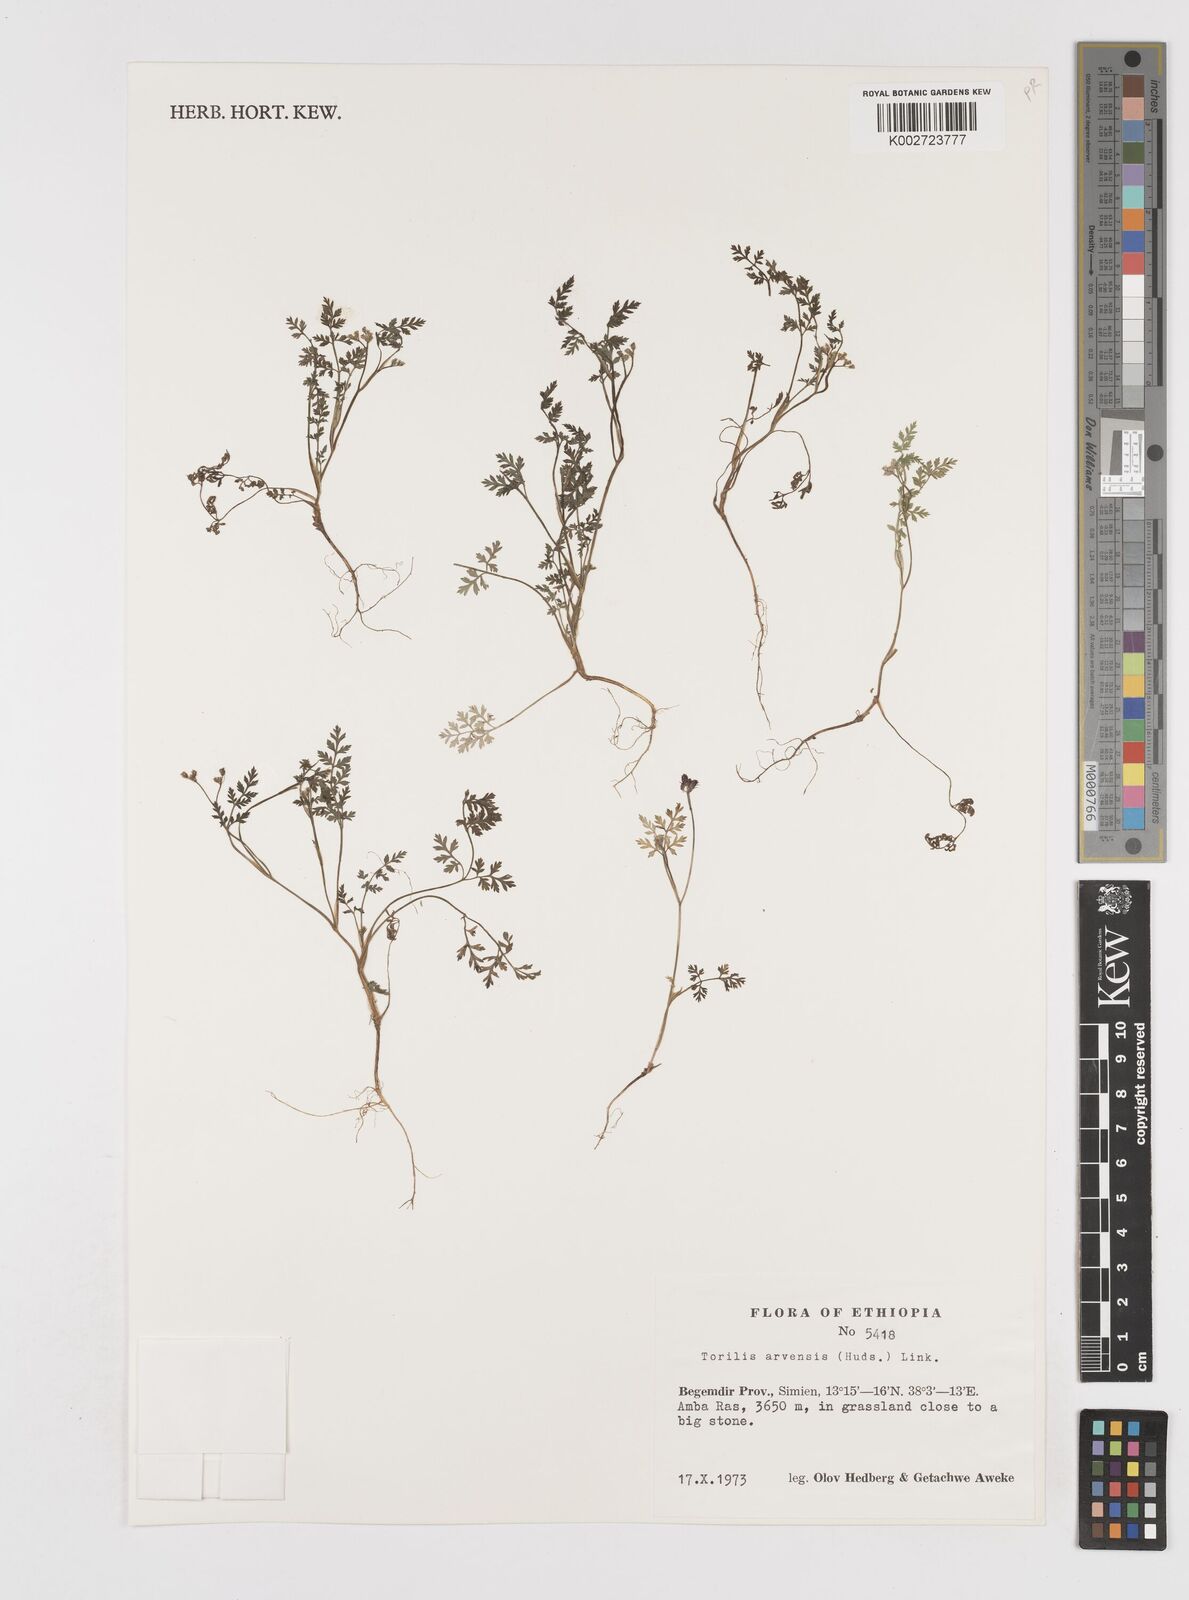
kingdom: Plantae
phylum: Tracheophyta
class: Magnoliopsida
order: Apiales
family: Apiaceae
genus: Torilis
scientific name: Torilis arvensis
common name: Spreading hedge-parsley
